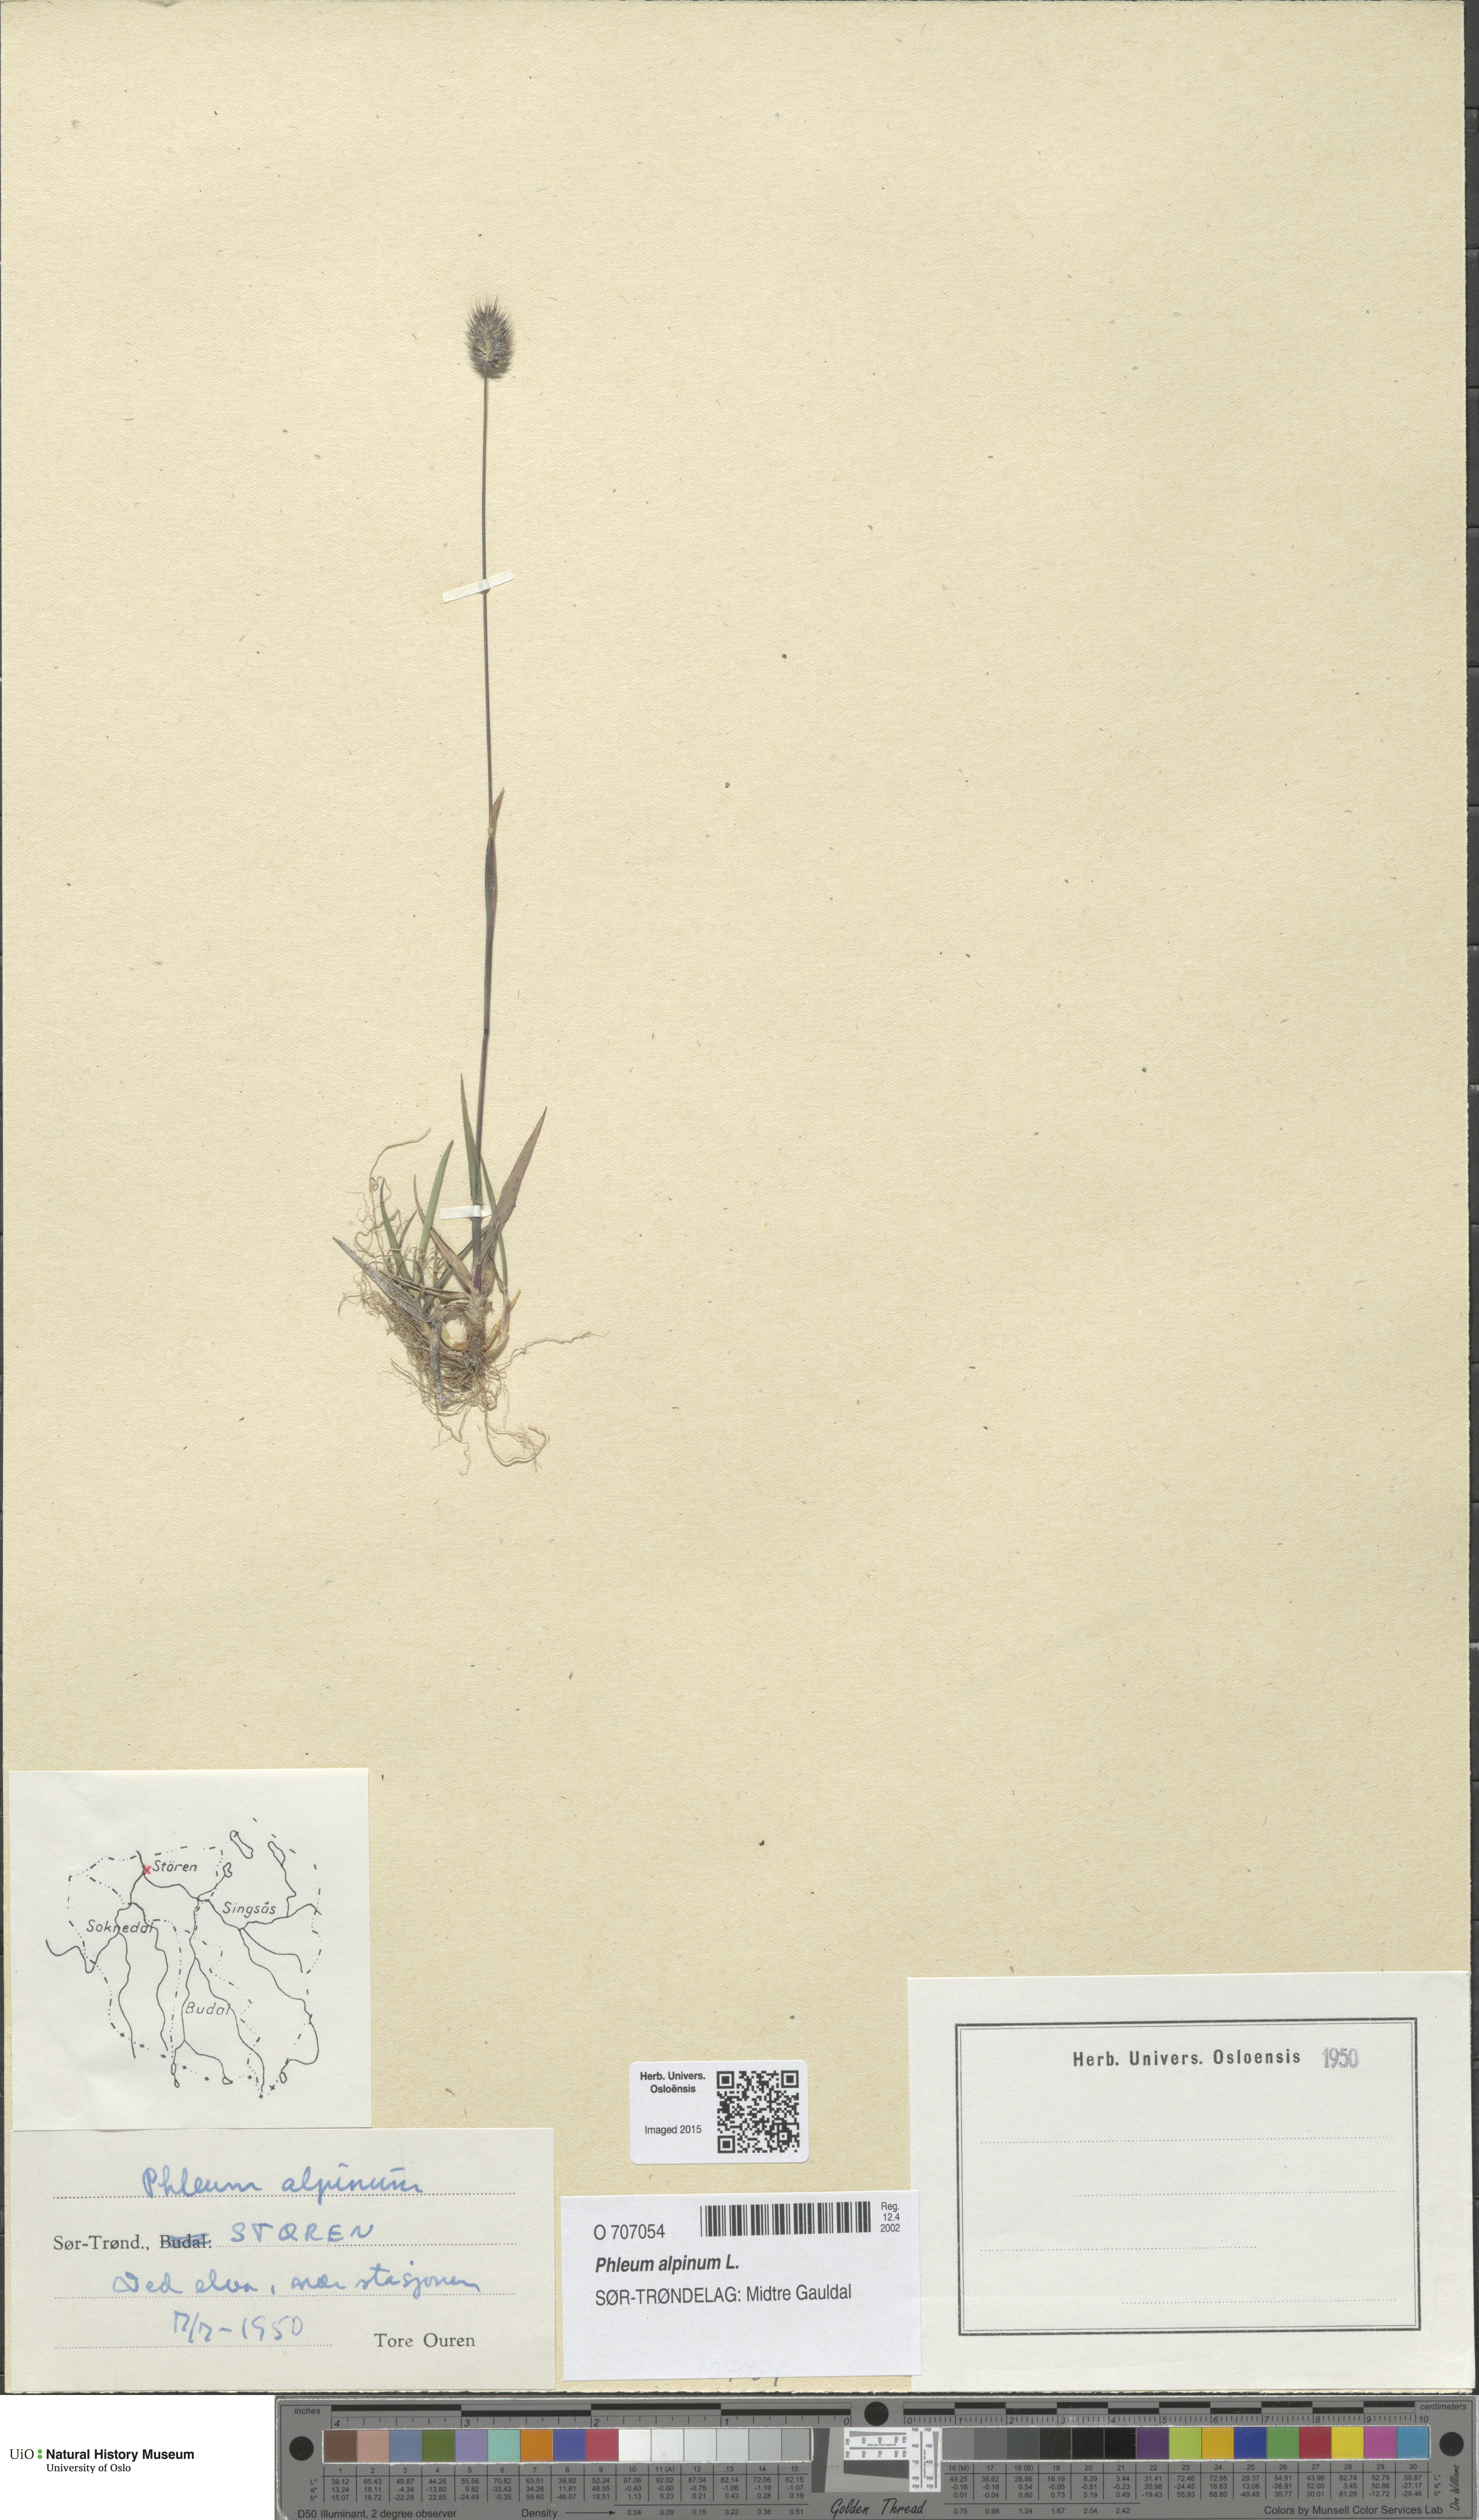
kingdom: Plantae
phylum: Tracheophyta
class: Liliopsida
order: Poales
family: Poaceae
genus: Phleum
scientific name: Phleum alpinum
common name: Alpine cat's-tail
